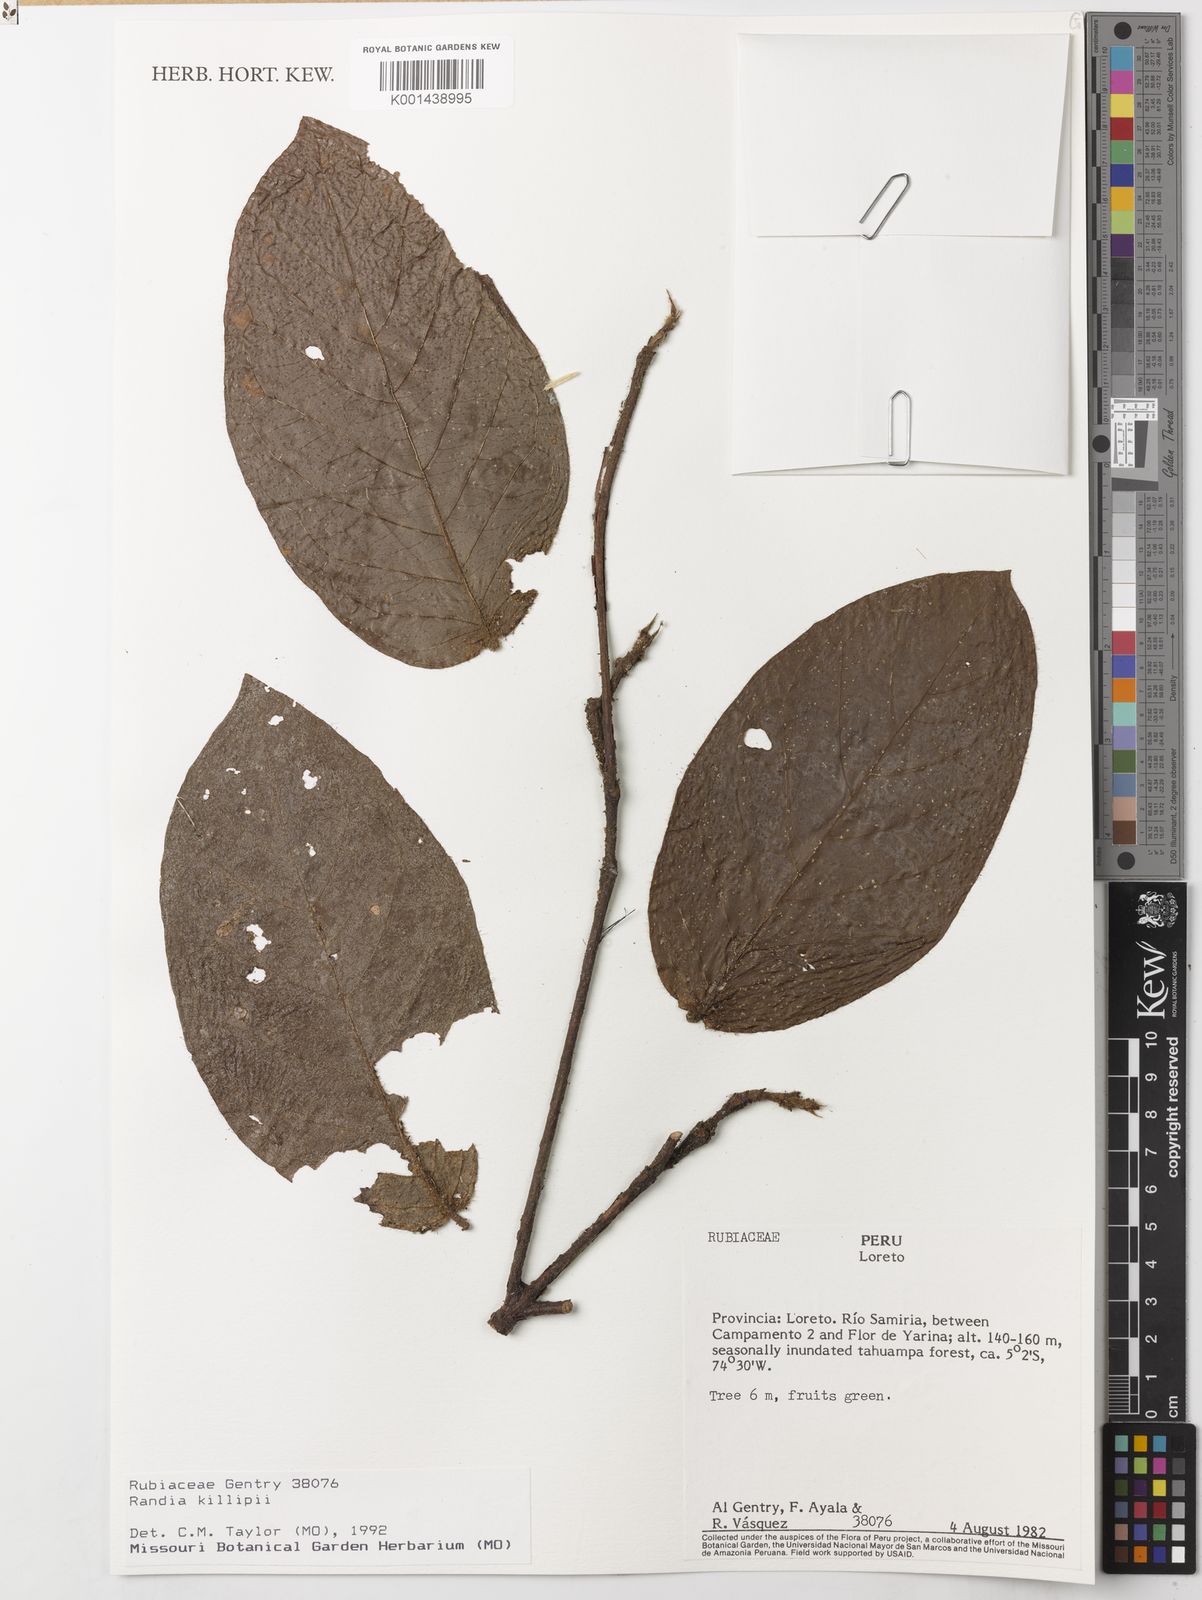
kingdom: Plantae
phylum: Tracheophyta
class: Magnoliopsida
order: Gentianales
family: Rubiaceae
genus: Cordiera
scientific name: Cordiera killipii
